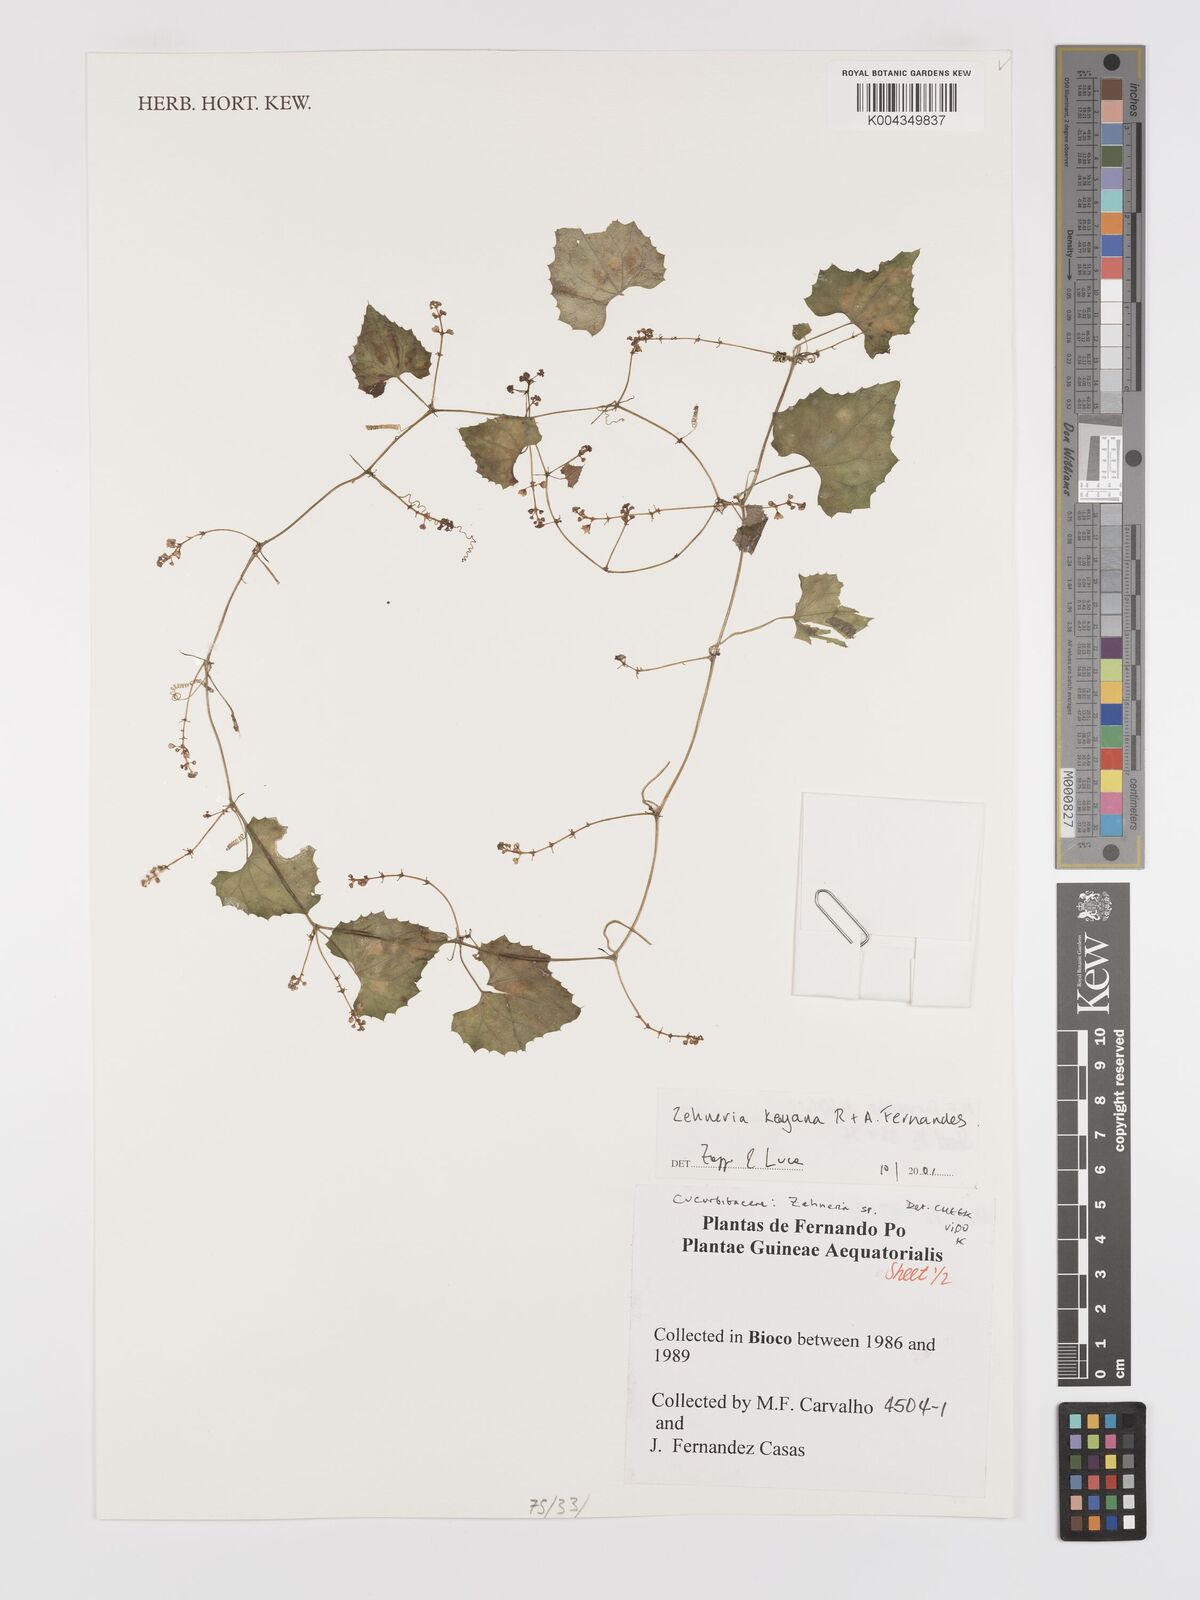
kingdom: Plantae
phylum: Tracheophyta
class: Magnoliopsida
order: Cucurbitales
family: Cucurbitaceae
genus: Zehneria
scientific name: Zehneria keayana
